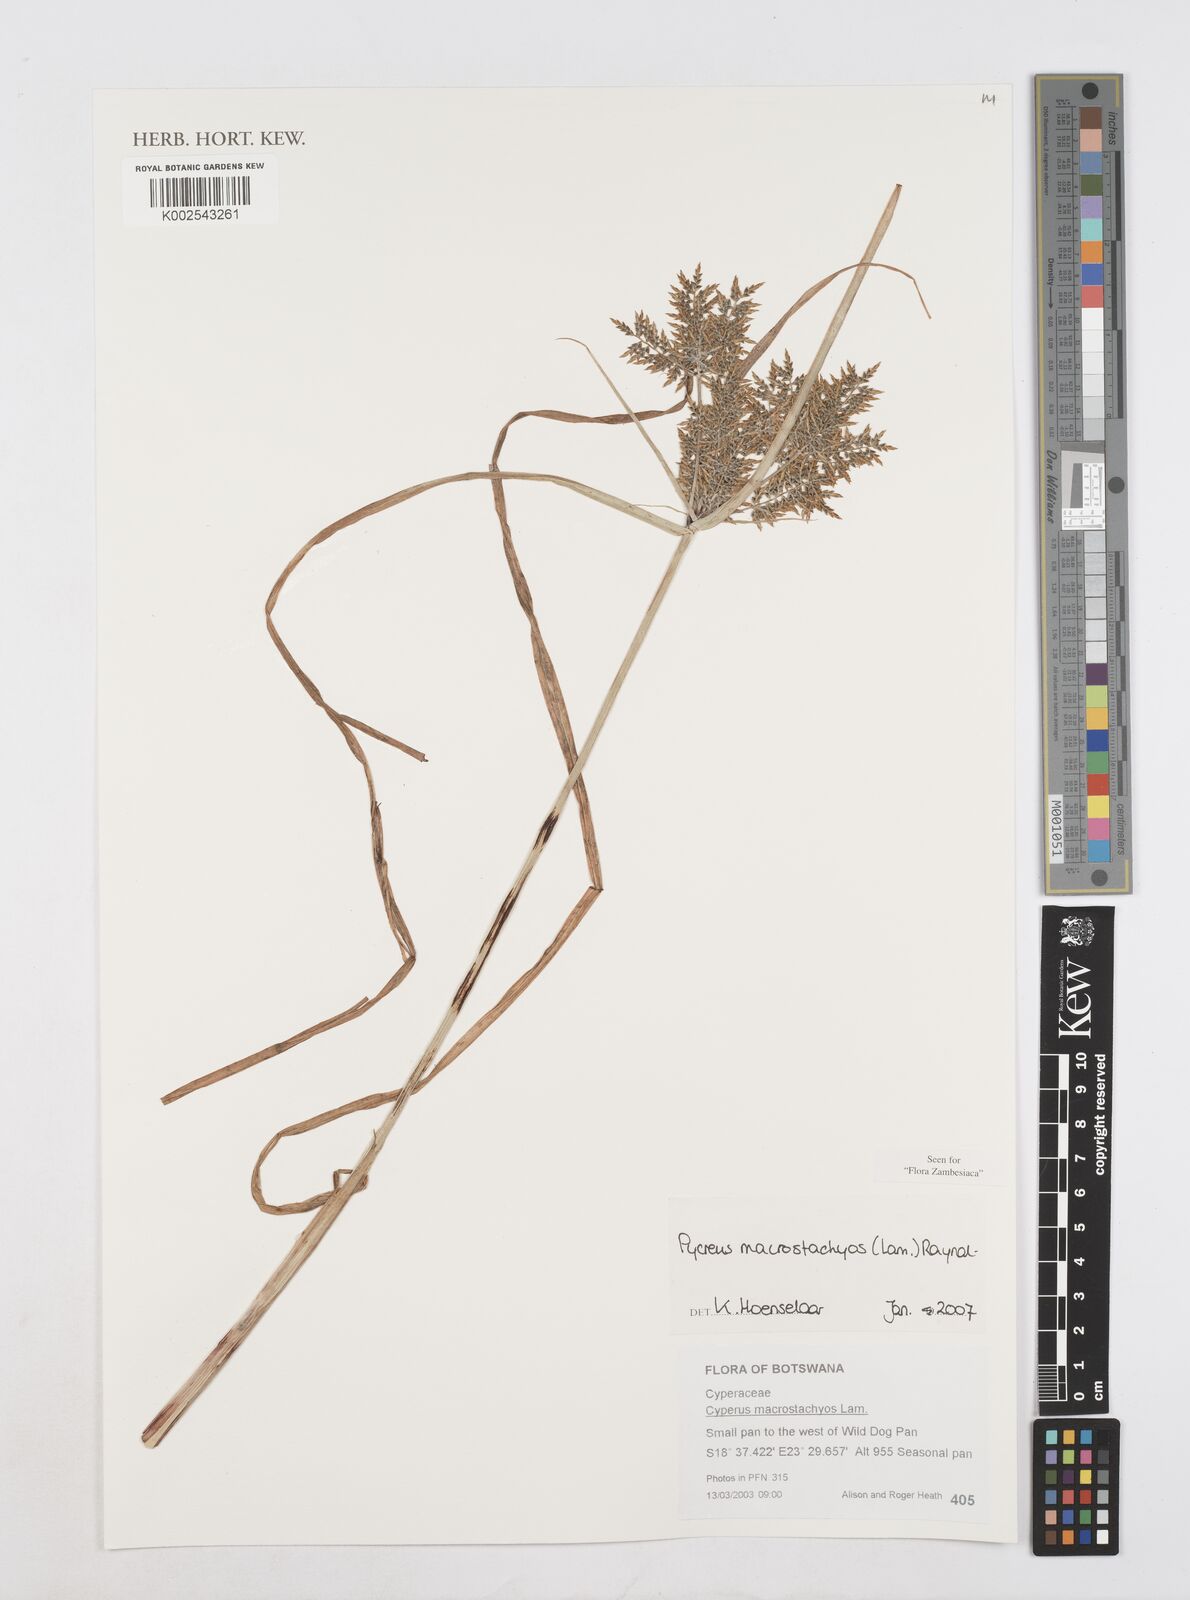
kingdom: Plantae
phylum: Tracheophyta
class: Liliopsida
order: Poales
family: Cyperaceae
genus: Cyperus
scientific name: Cyperus macrostachyos
